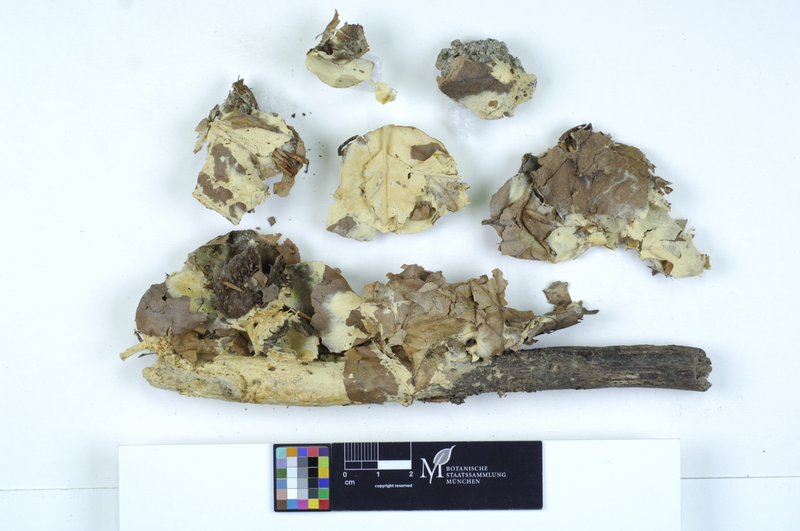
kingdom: Fungi
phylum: Basidiomycota
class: Agaricomycetes
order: Sebacinales
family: Sebacinaceae
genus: Sebacina
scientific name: Sebacina incrustans
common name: Enveloping crust
